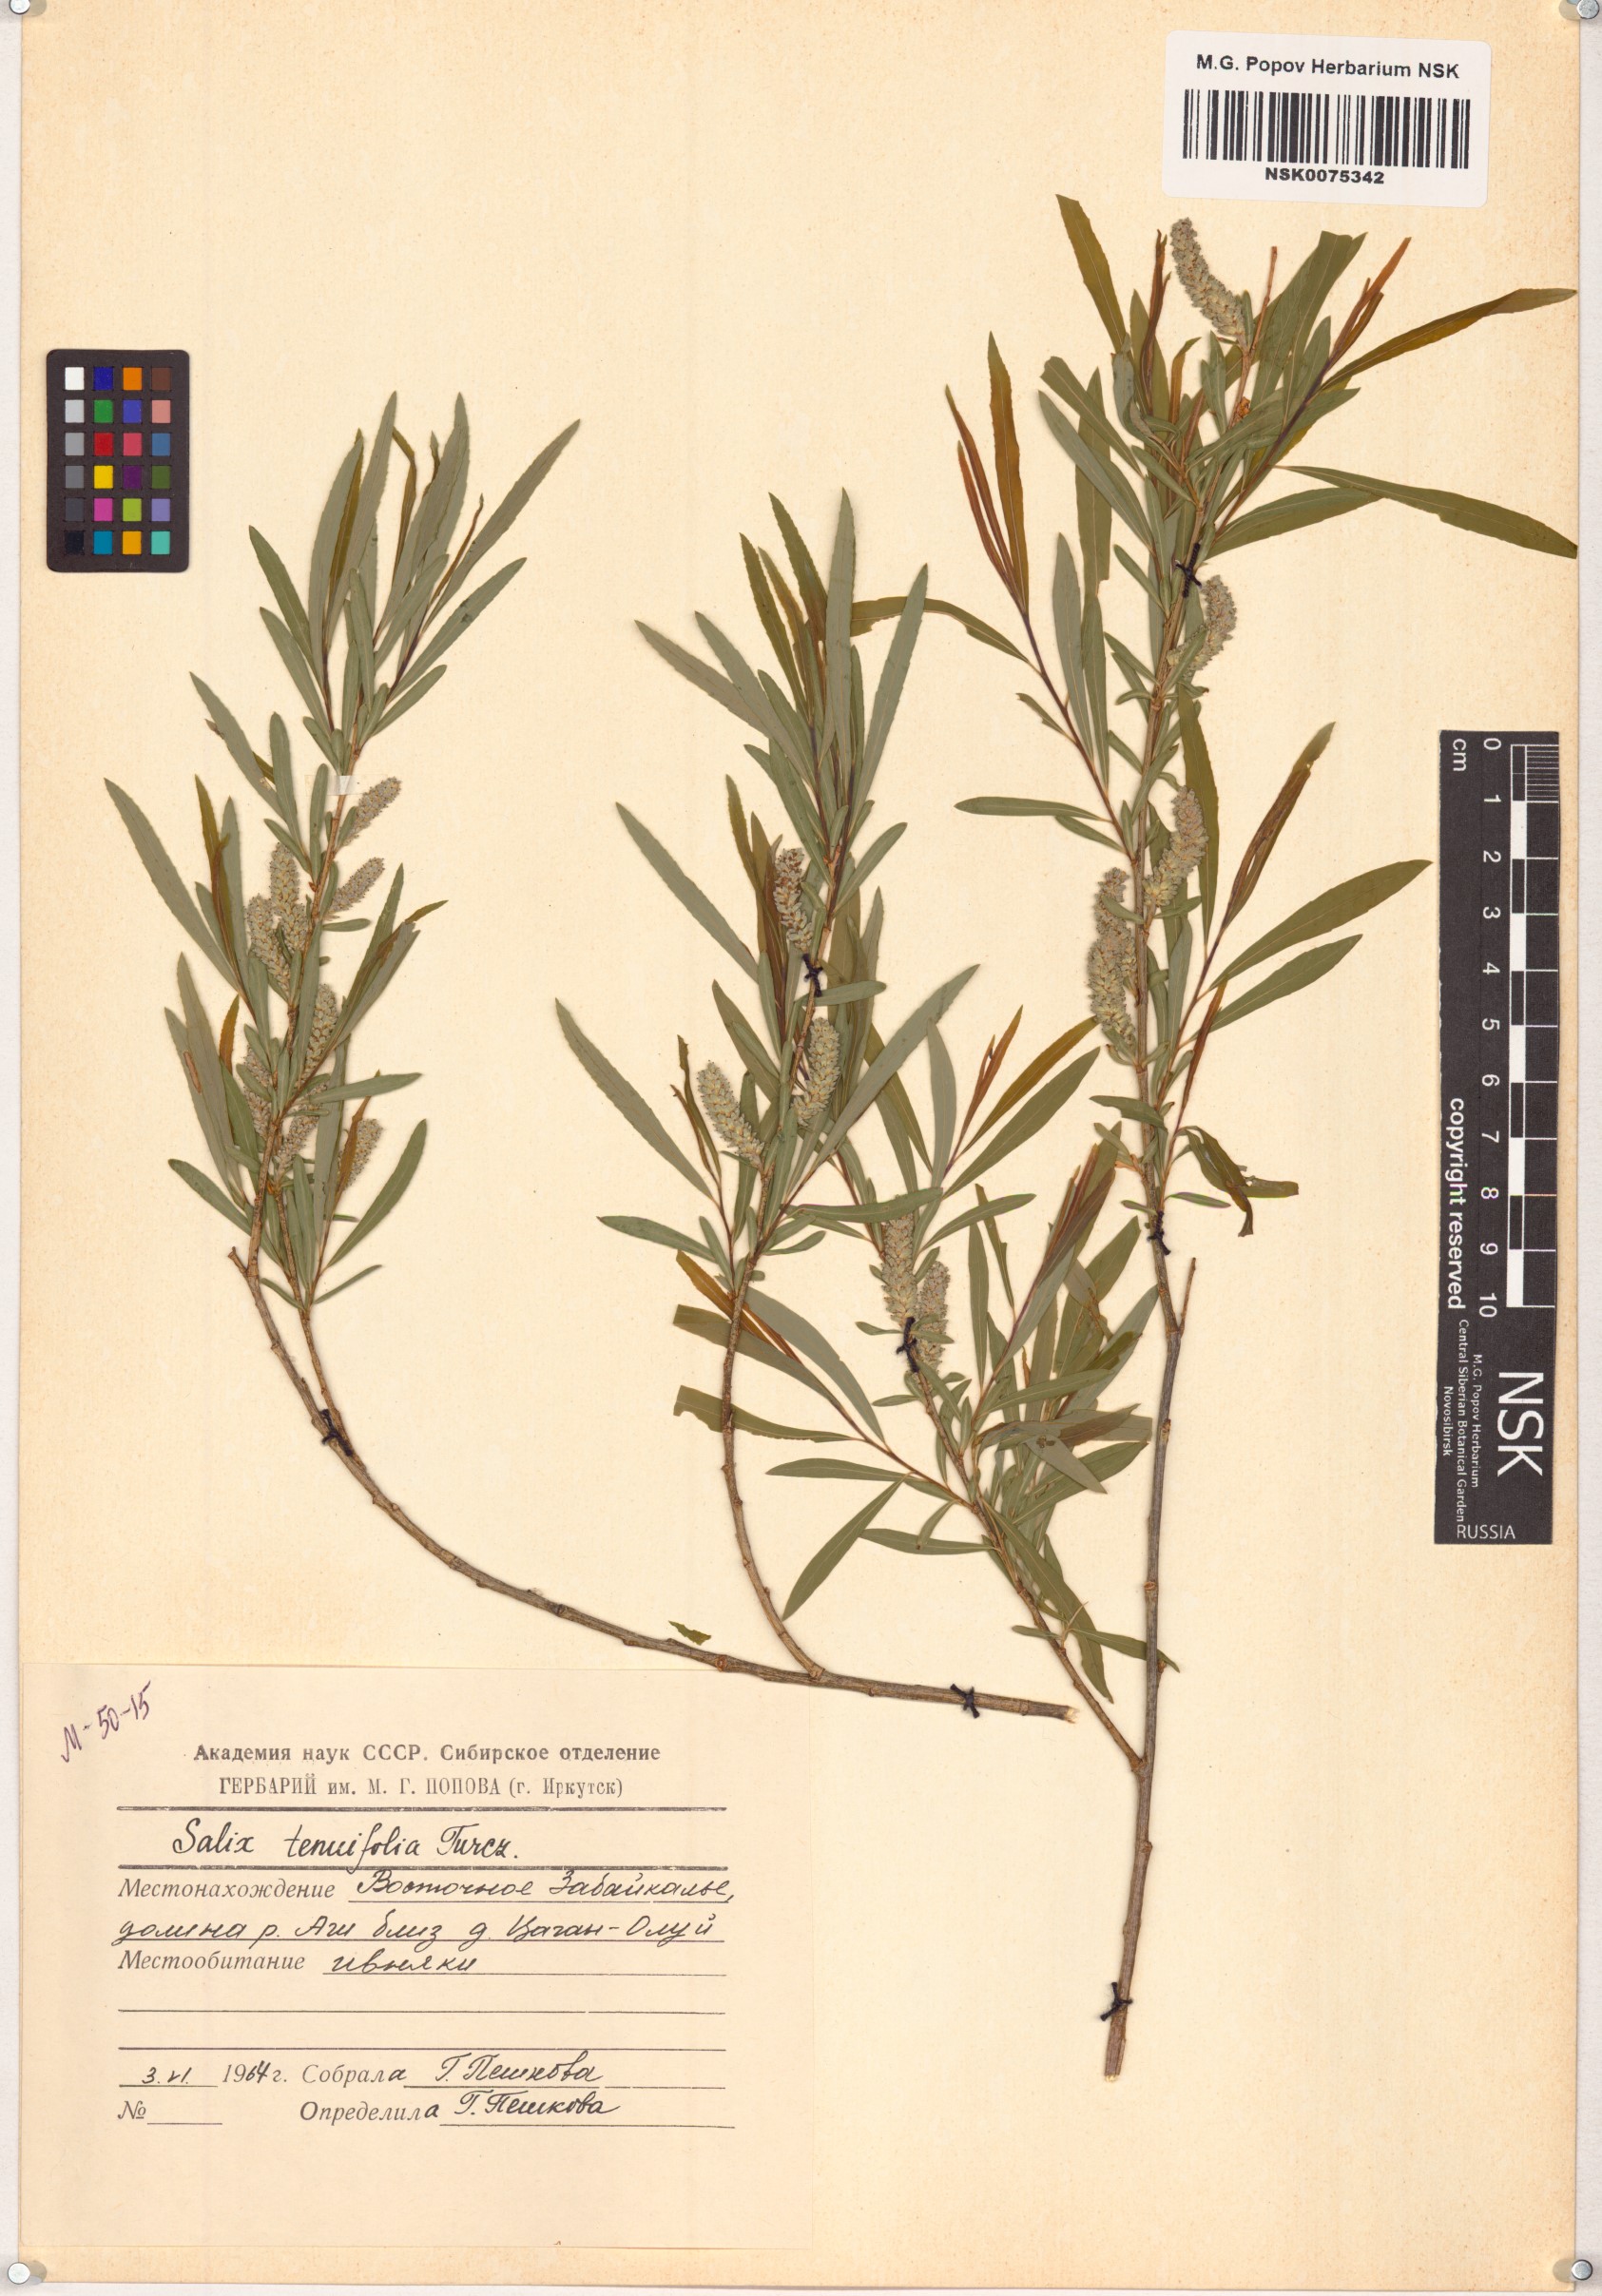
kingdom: Plantae
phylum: Tracheophyta
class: Magnoliopsida
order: Malpighiales
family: Salicaceae
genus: Salix
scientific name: Salix
